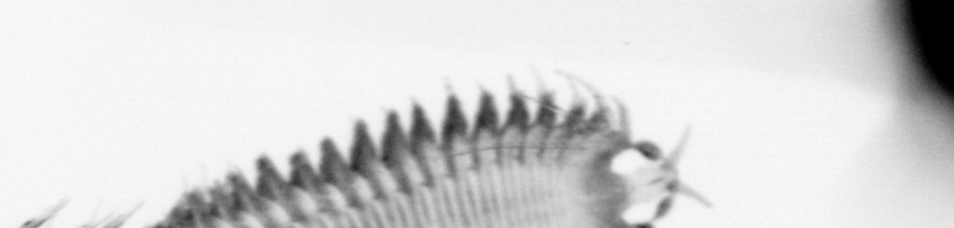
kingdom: Animalia
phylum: Annelida
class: Polychaeta
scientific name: Polychaeta
